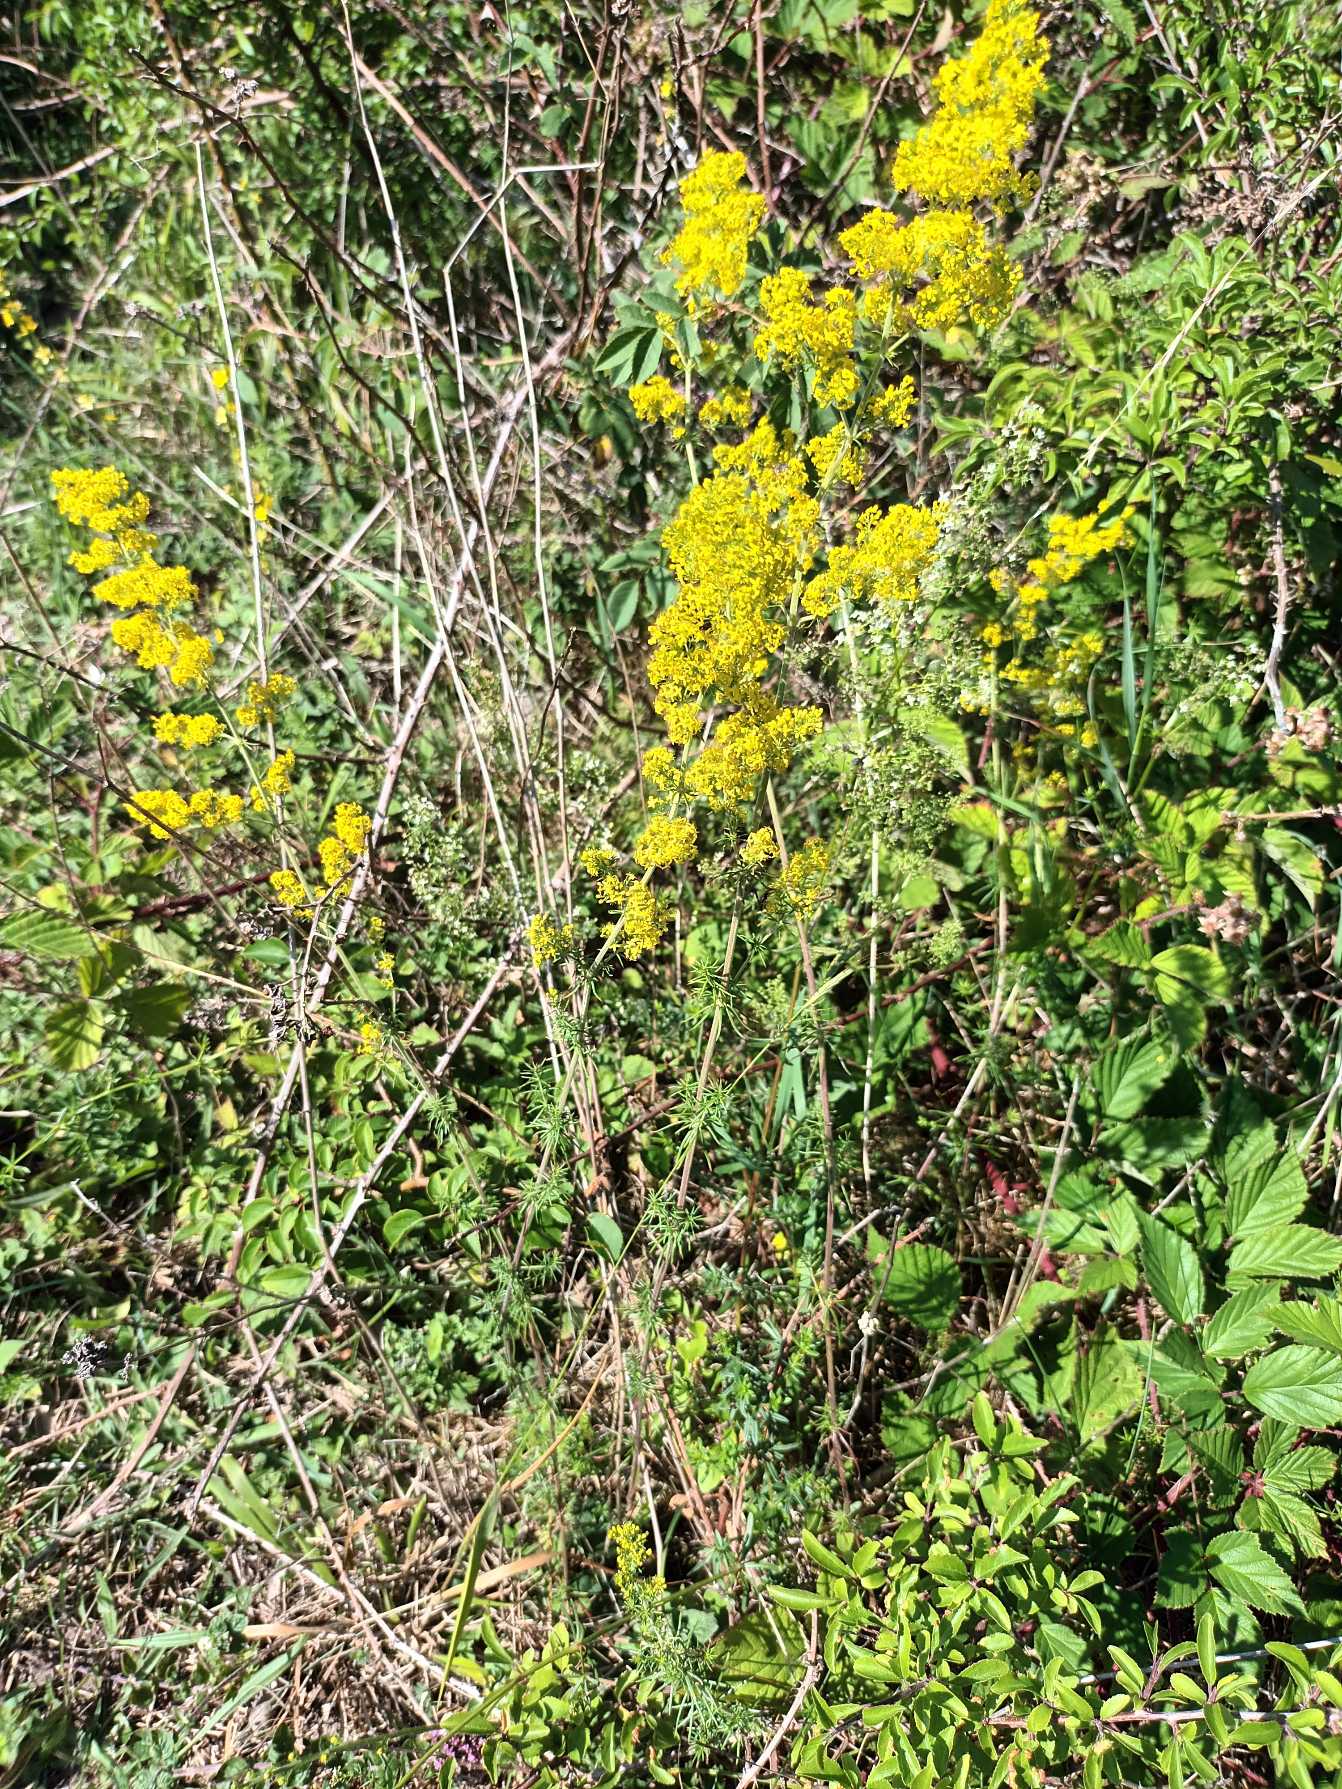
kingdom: Plantae
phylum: Tracheophyta
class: Magnoliopsida
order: Gentianales
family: Rubiaceae
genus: Galium
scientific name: Galium verum
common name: Gul snerre
